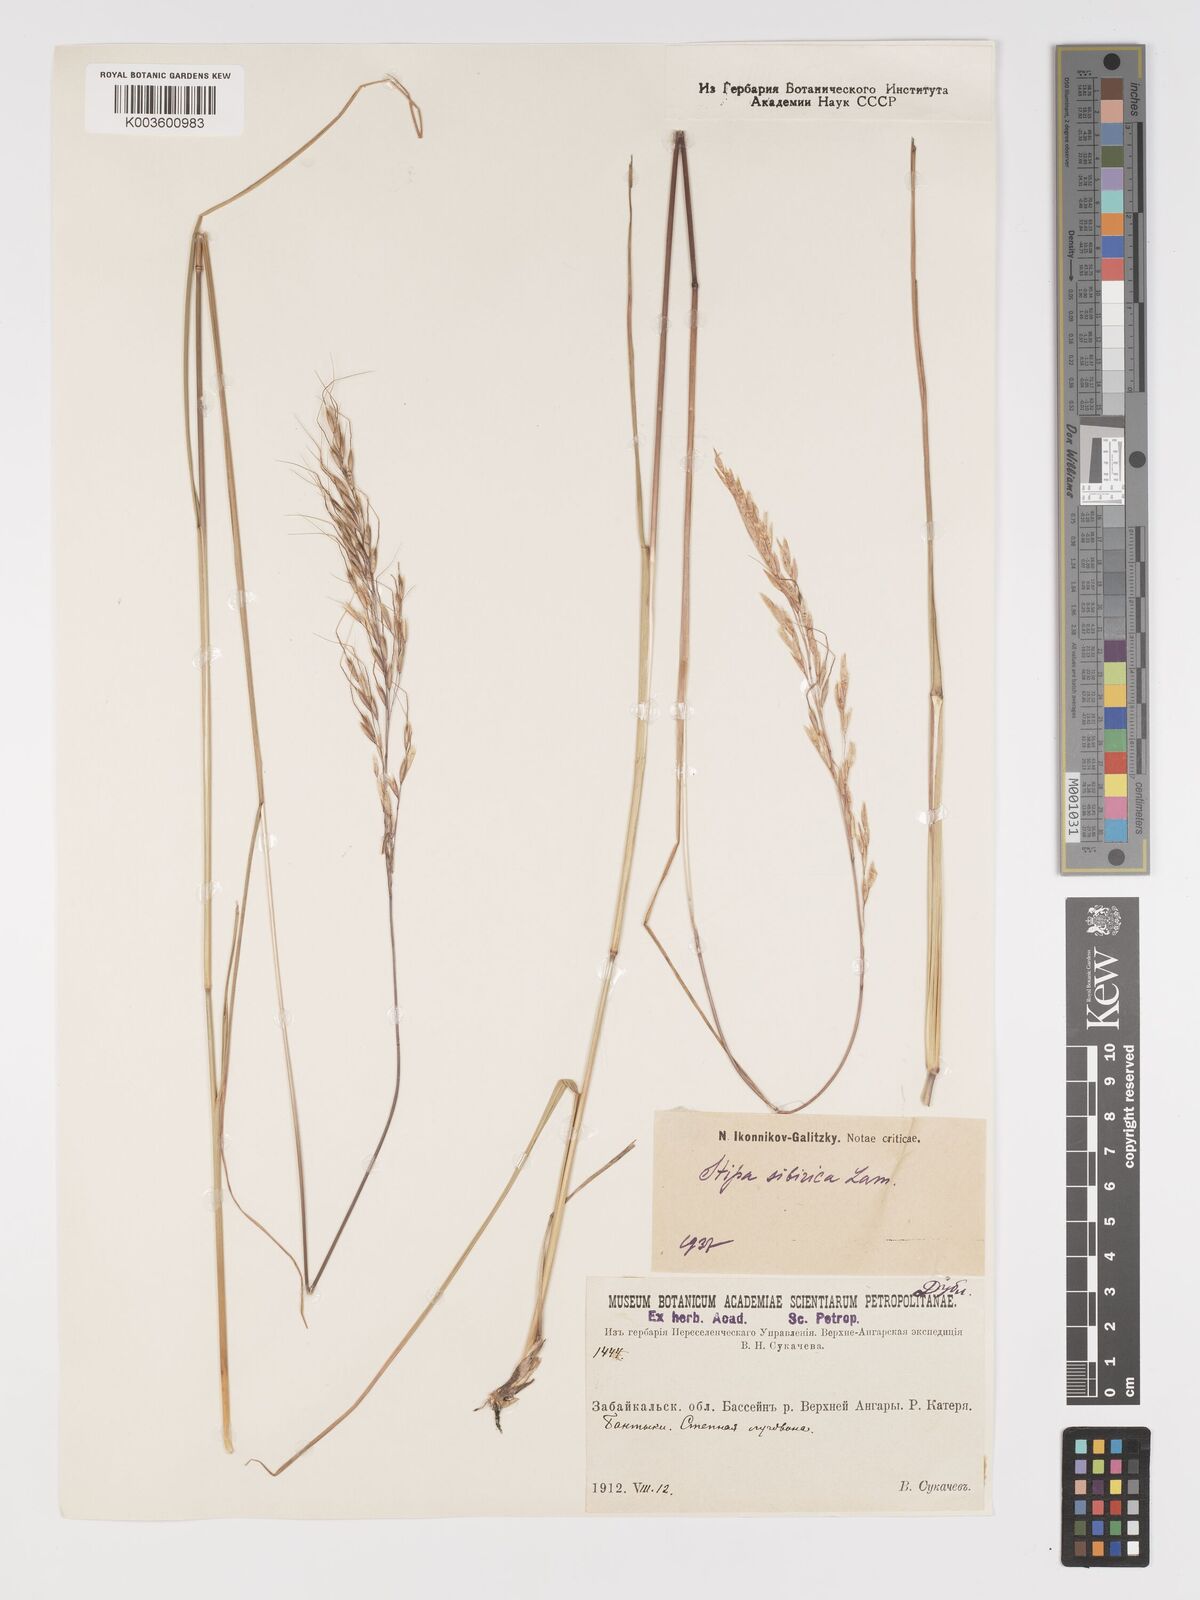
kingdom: Plantae
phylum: Tracheophyta
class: Liliopsida
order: Poales
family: Poaceae
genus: Achnatherum
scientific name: Achnatherum sibiricum
